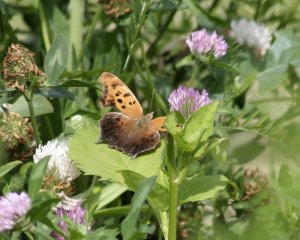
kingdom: Animalia
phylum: Arthropoda
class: Insecta
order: Lepidoptera
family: Nymphalidae
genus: Polygonia
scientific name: Polygonia interrogationis
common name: Question Mark
